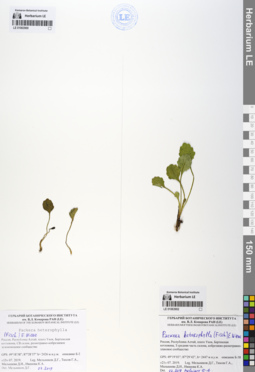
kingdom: Plantae
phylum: Tracheophyta
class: Magnoliopsida
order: Asterales
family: Asteraceae
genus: Packera
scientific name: Packera heterophylla
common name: Arctic butterweed
